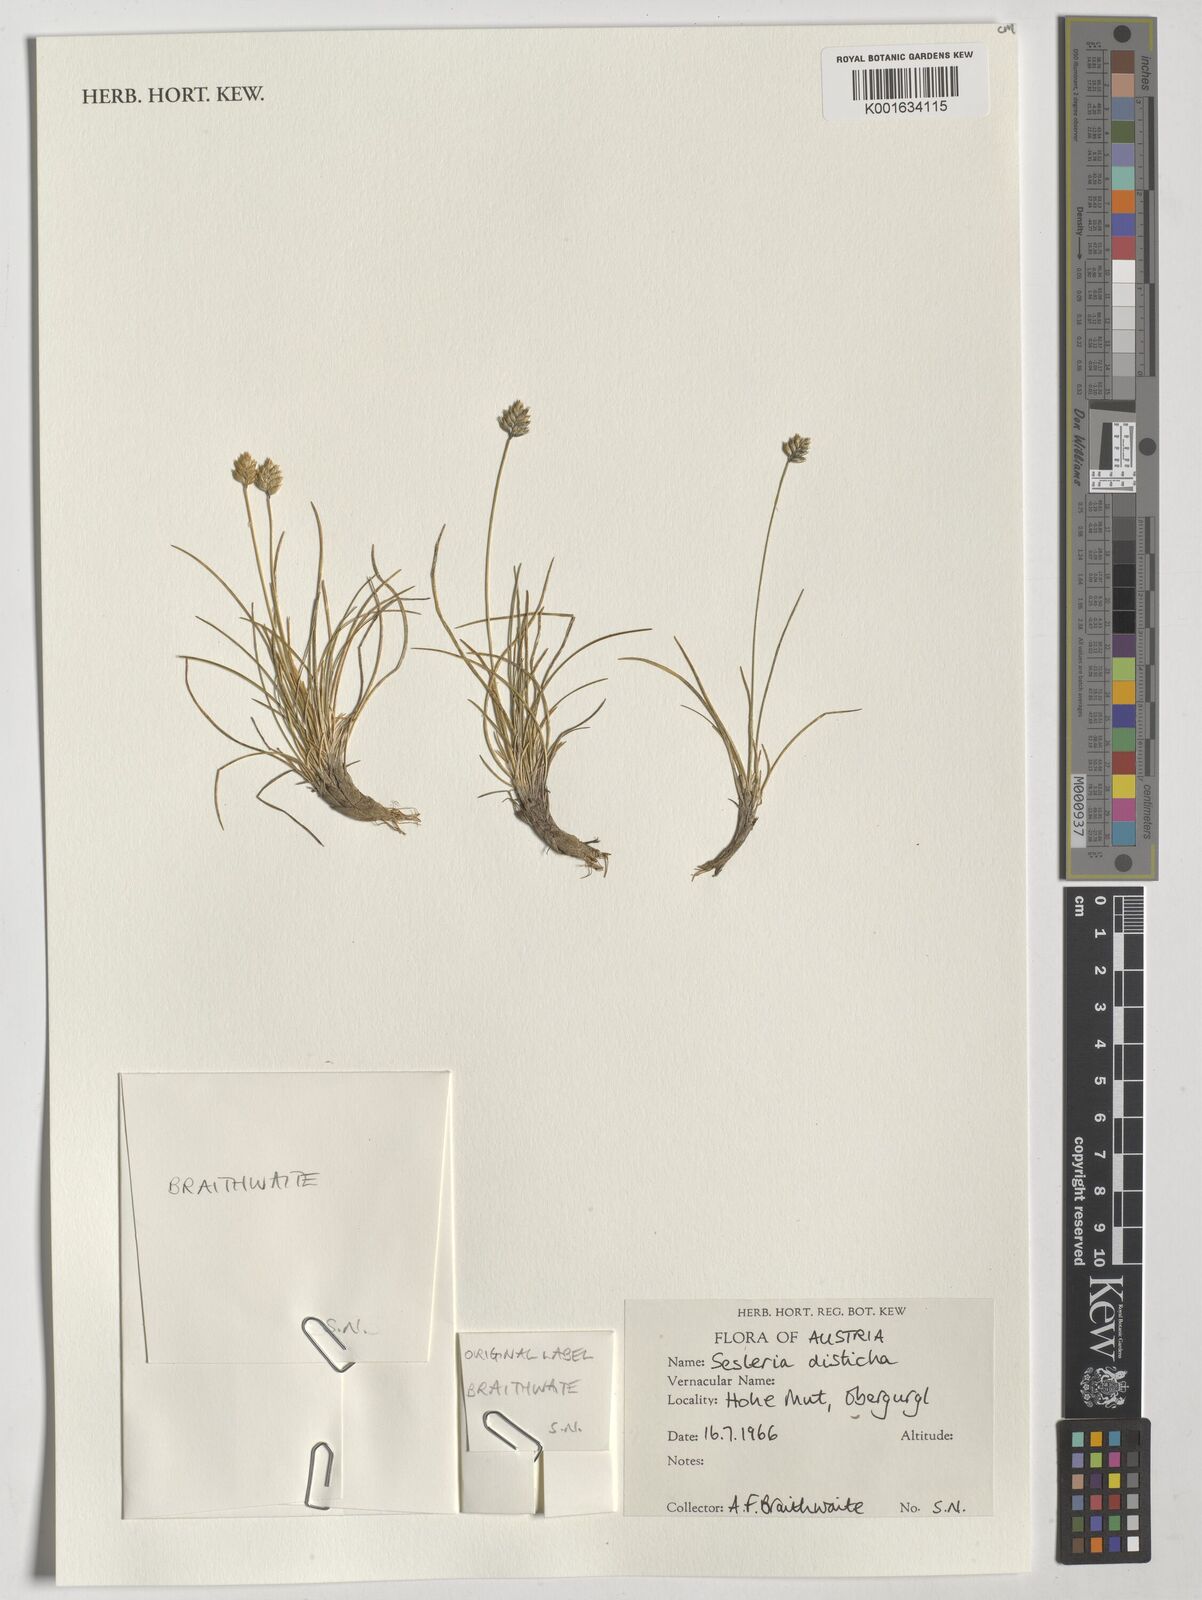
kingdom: Plantae
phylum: Tracheophyta
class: Liliopsida
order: Poales
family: Poaceae
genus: Oreochloa
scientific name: Oreochloa disticha
